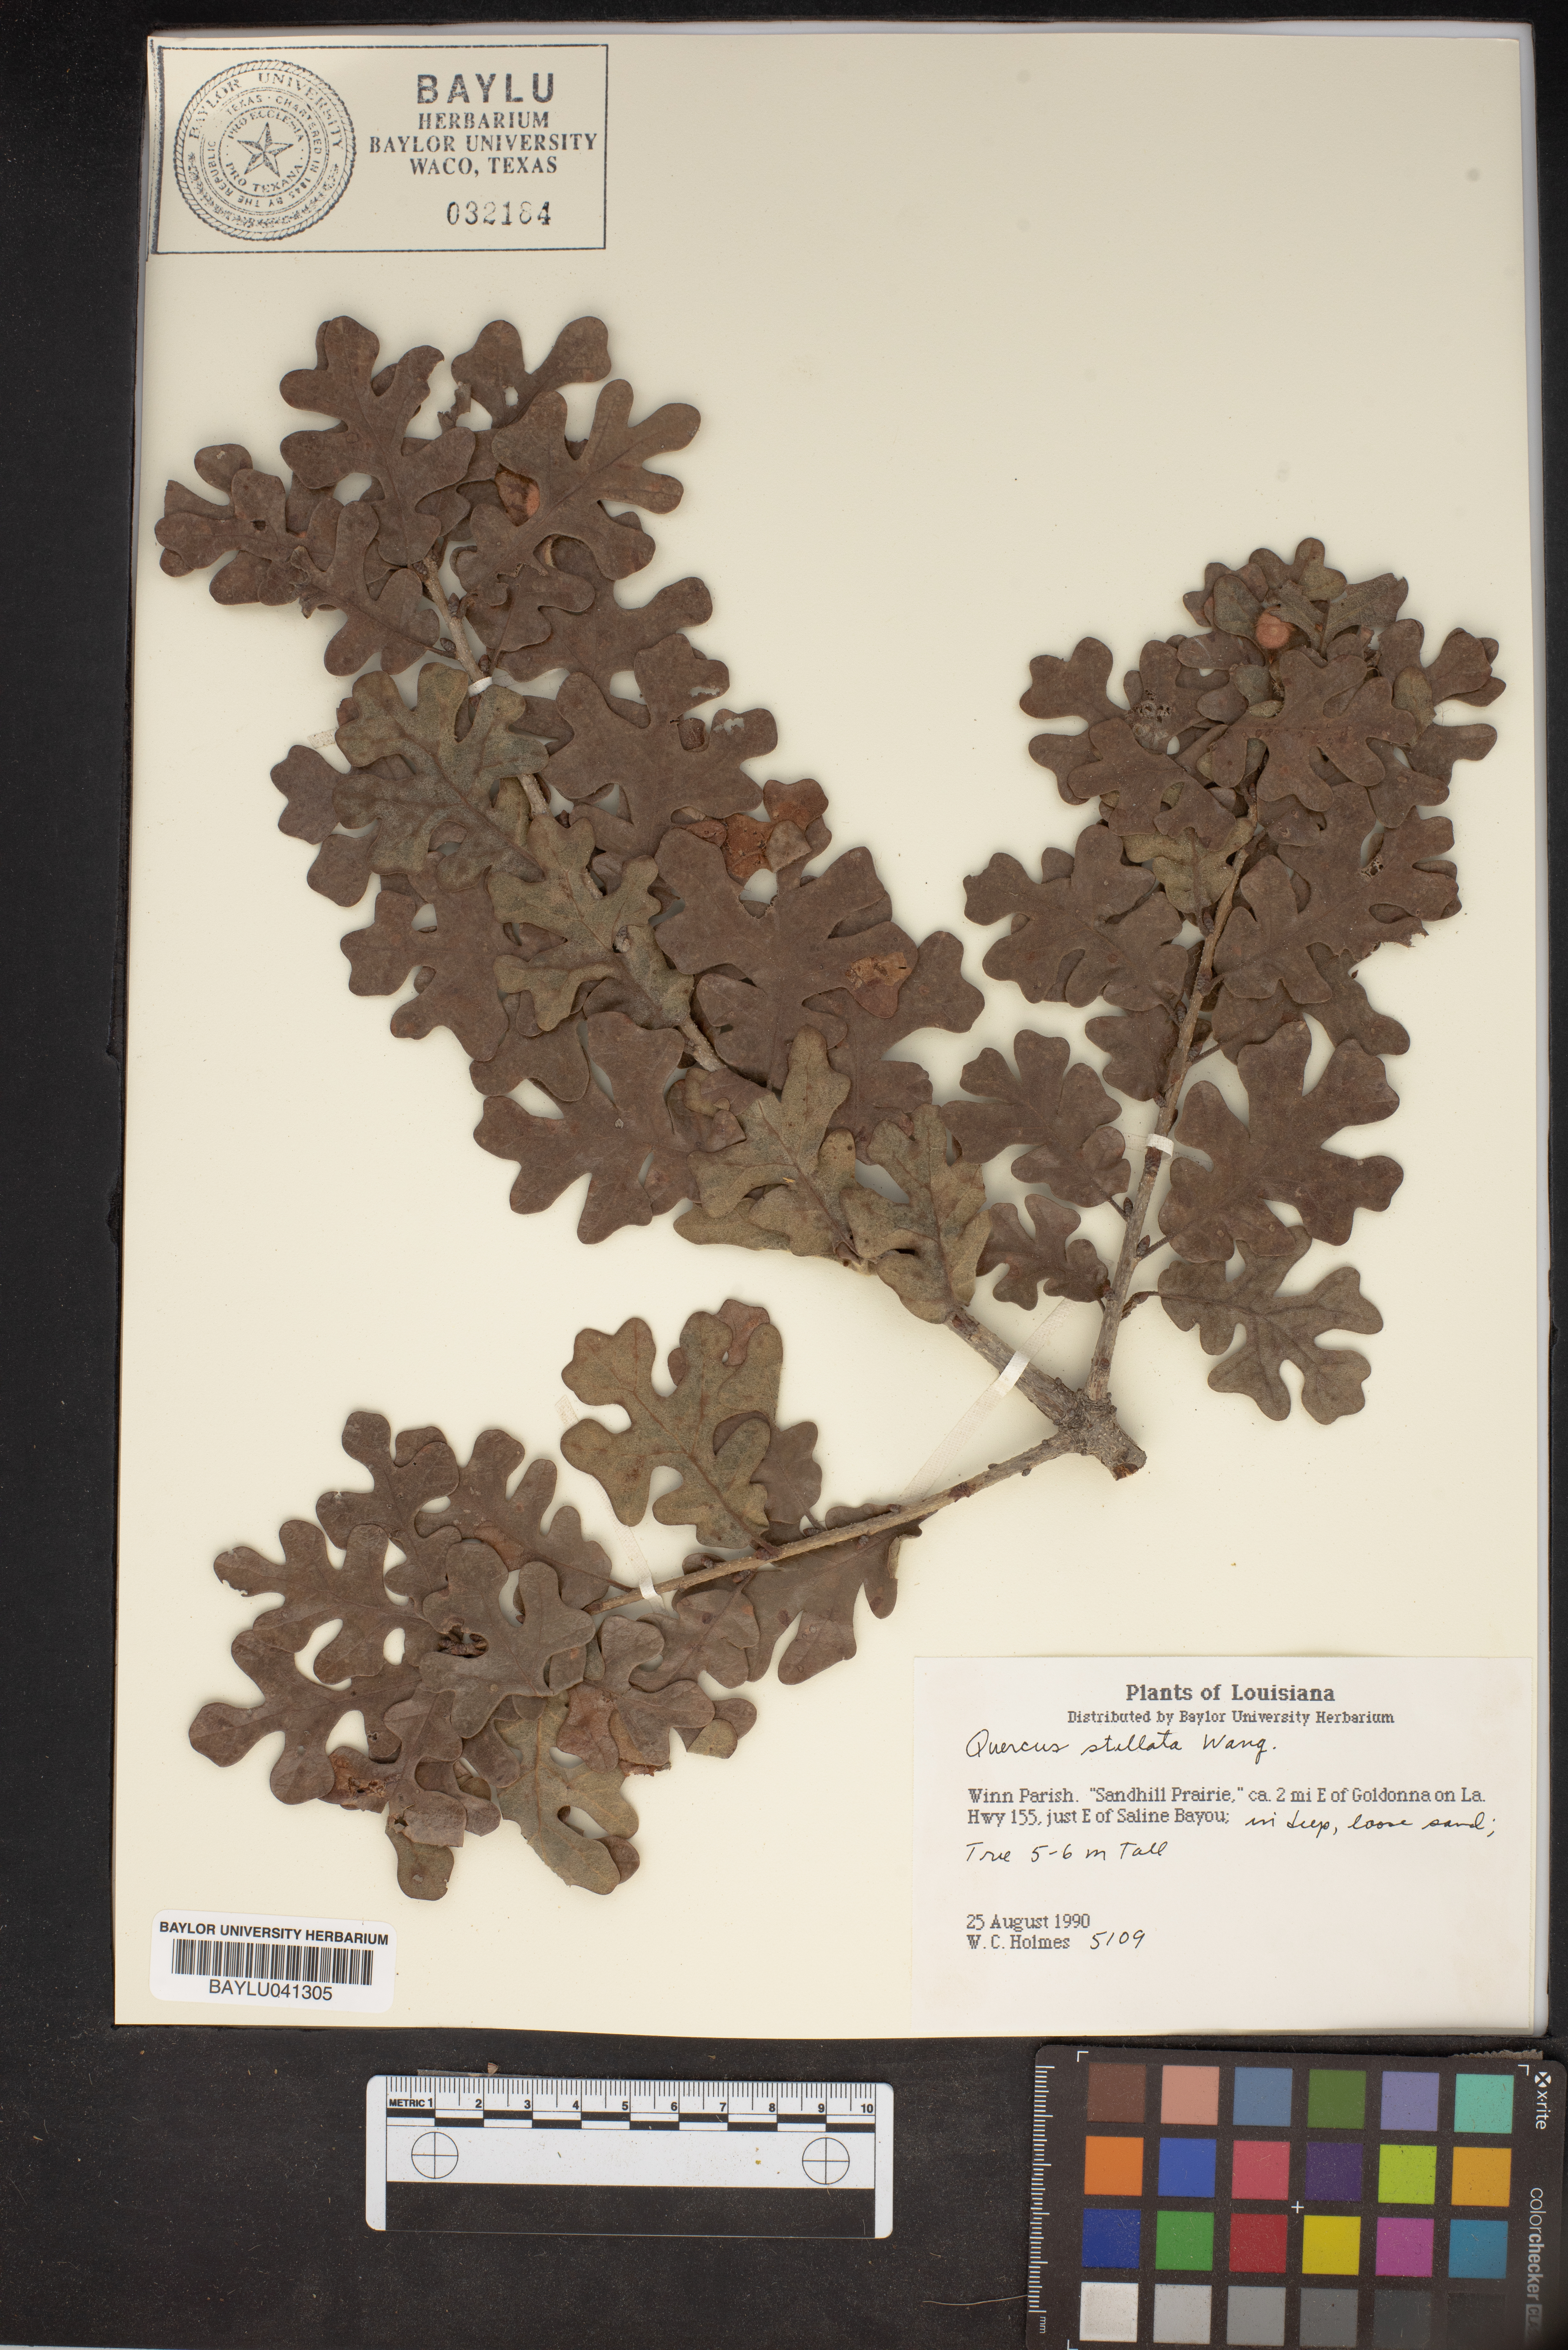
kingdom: Plantae
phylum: Tracheophyta
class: Magnoliopsida
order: Fagales
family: Fagaceae
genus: Quercus
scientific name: Quercus stellata
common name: Post oak
